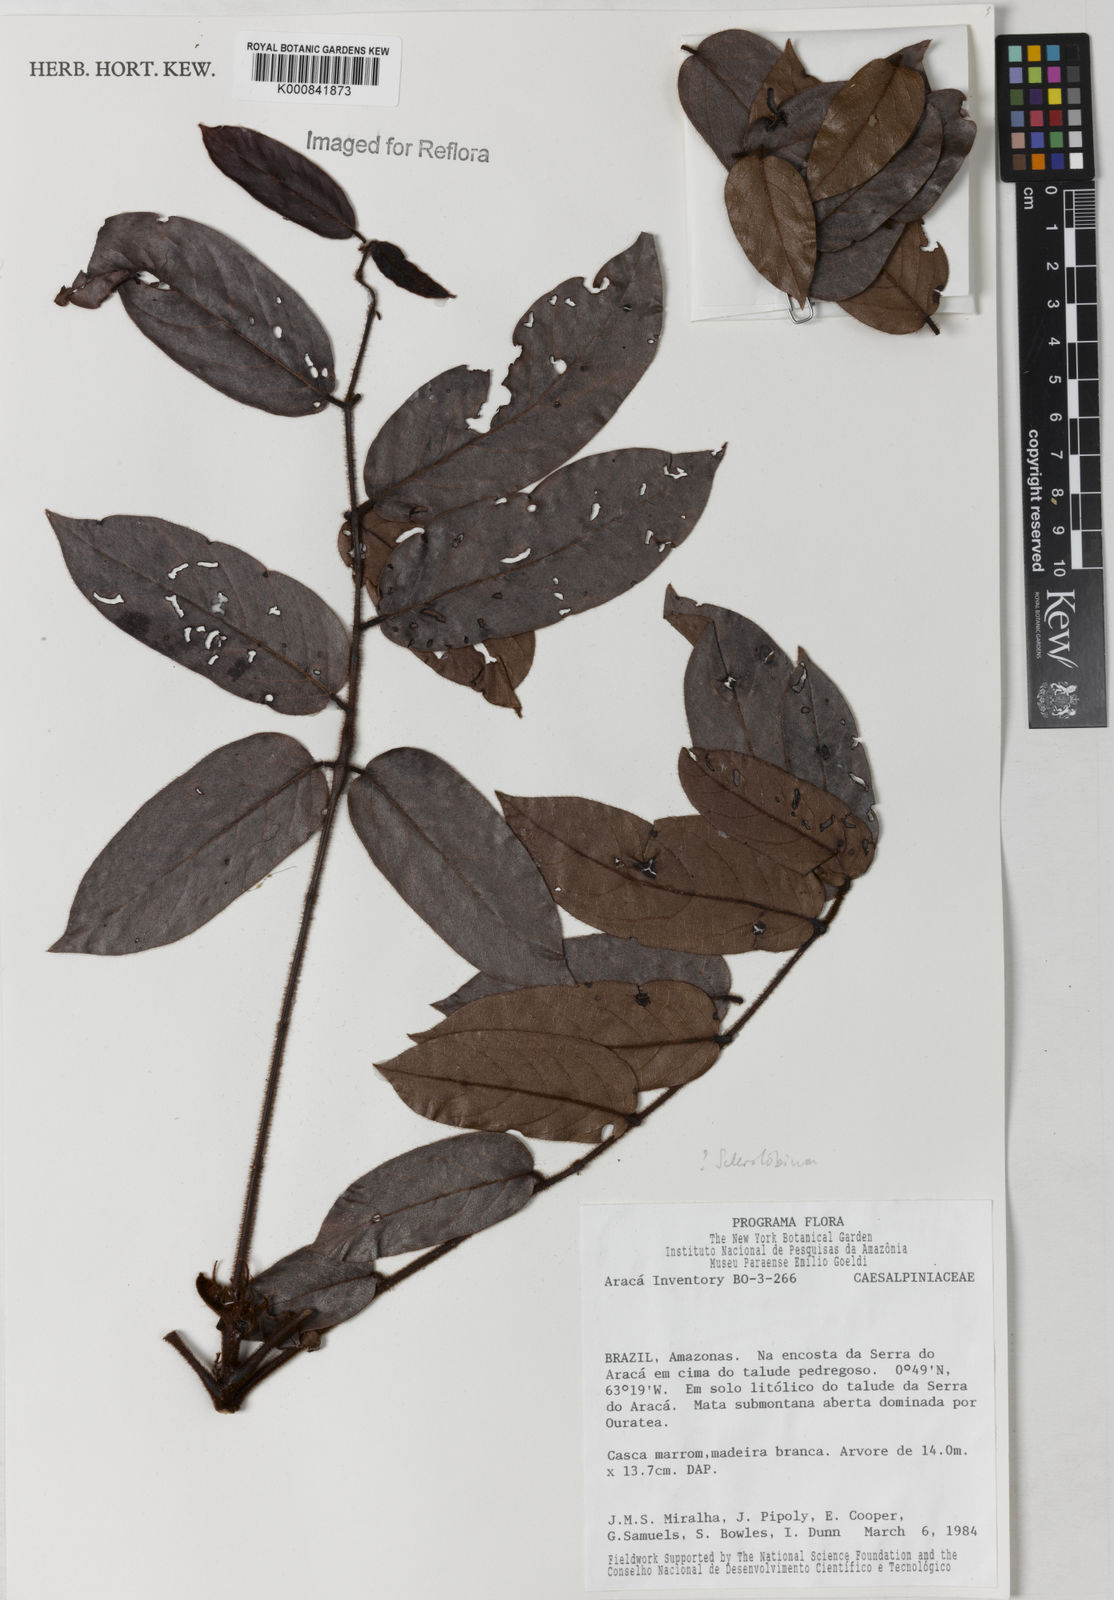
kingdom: Plantae
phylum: Tracheophyta
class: Magnoliopsida
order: Fabales
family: Fabaceae
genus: Tachigali
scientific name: Tachigali
